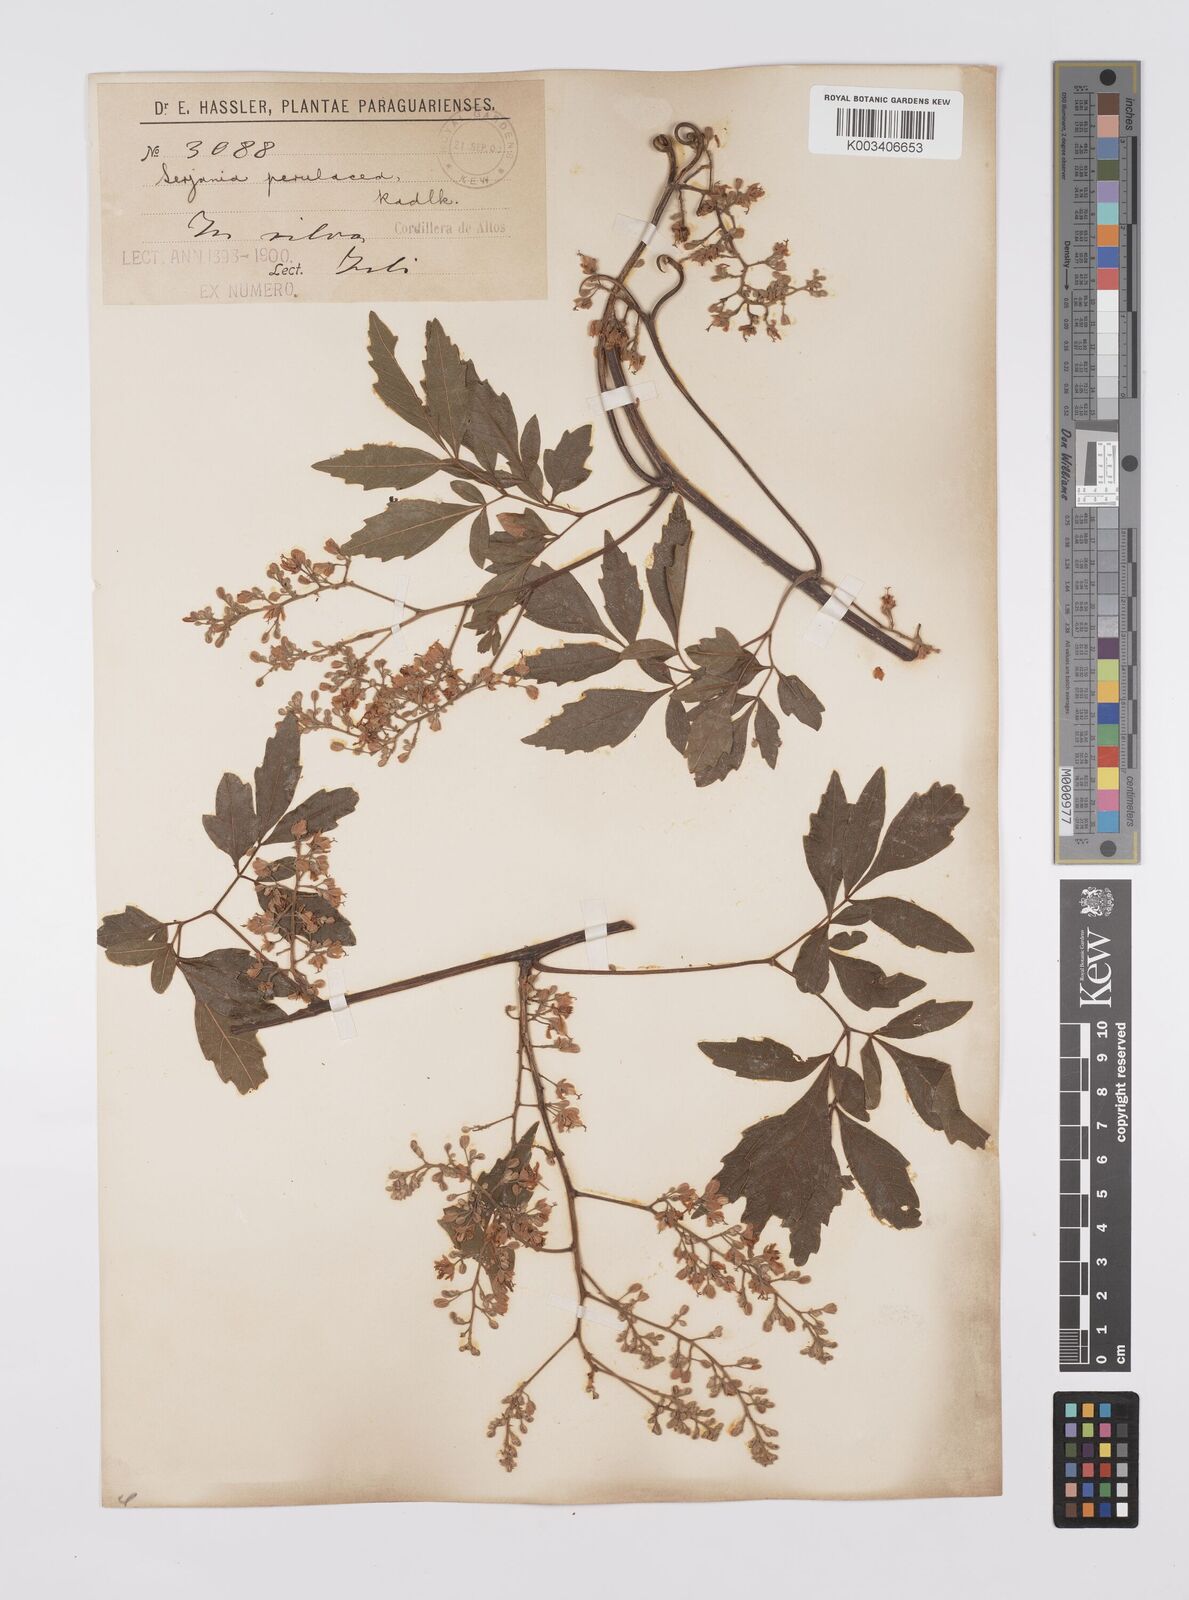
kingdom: Plantae
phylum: Tracheophyta
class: Magnoliopsida
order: Sapindales
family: Sapindaceae
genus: Serjania
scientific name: Serjania perulacea
